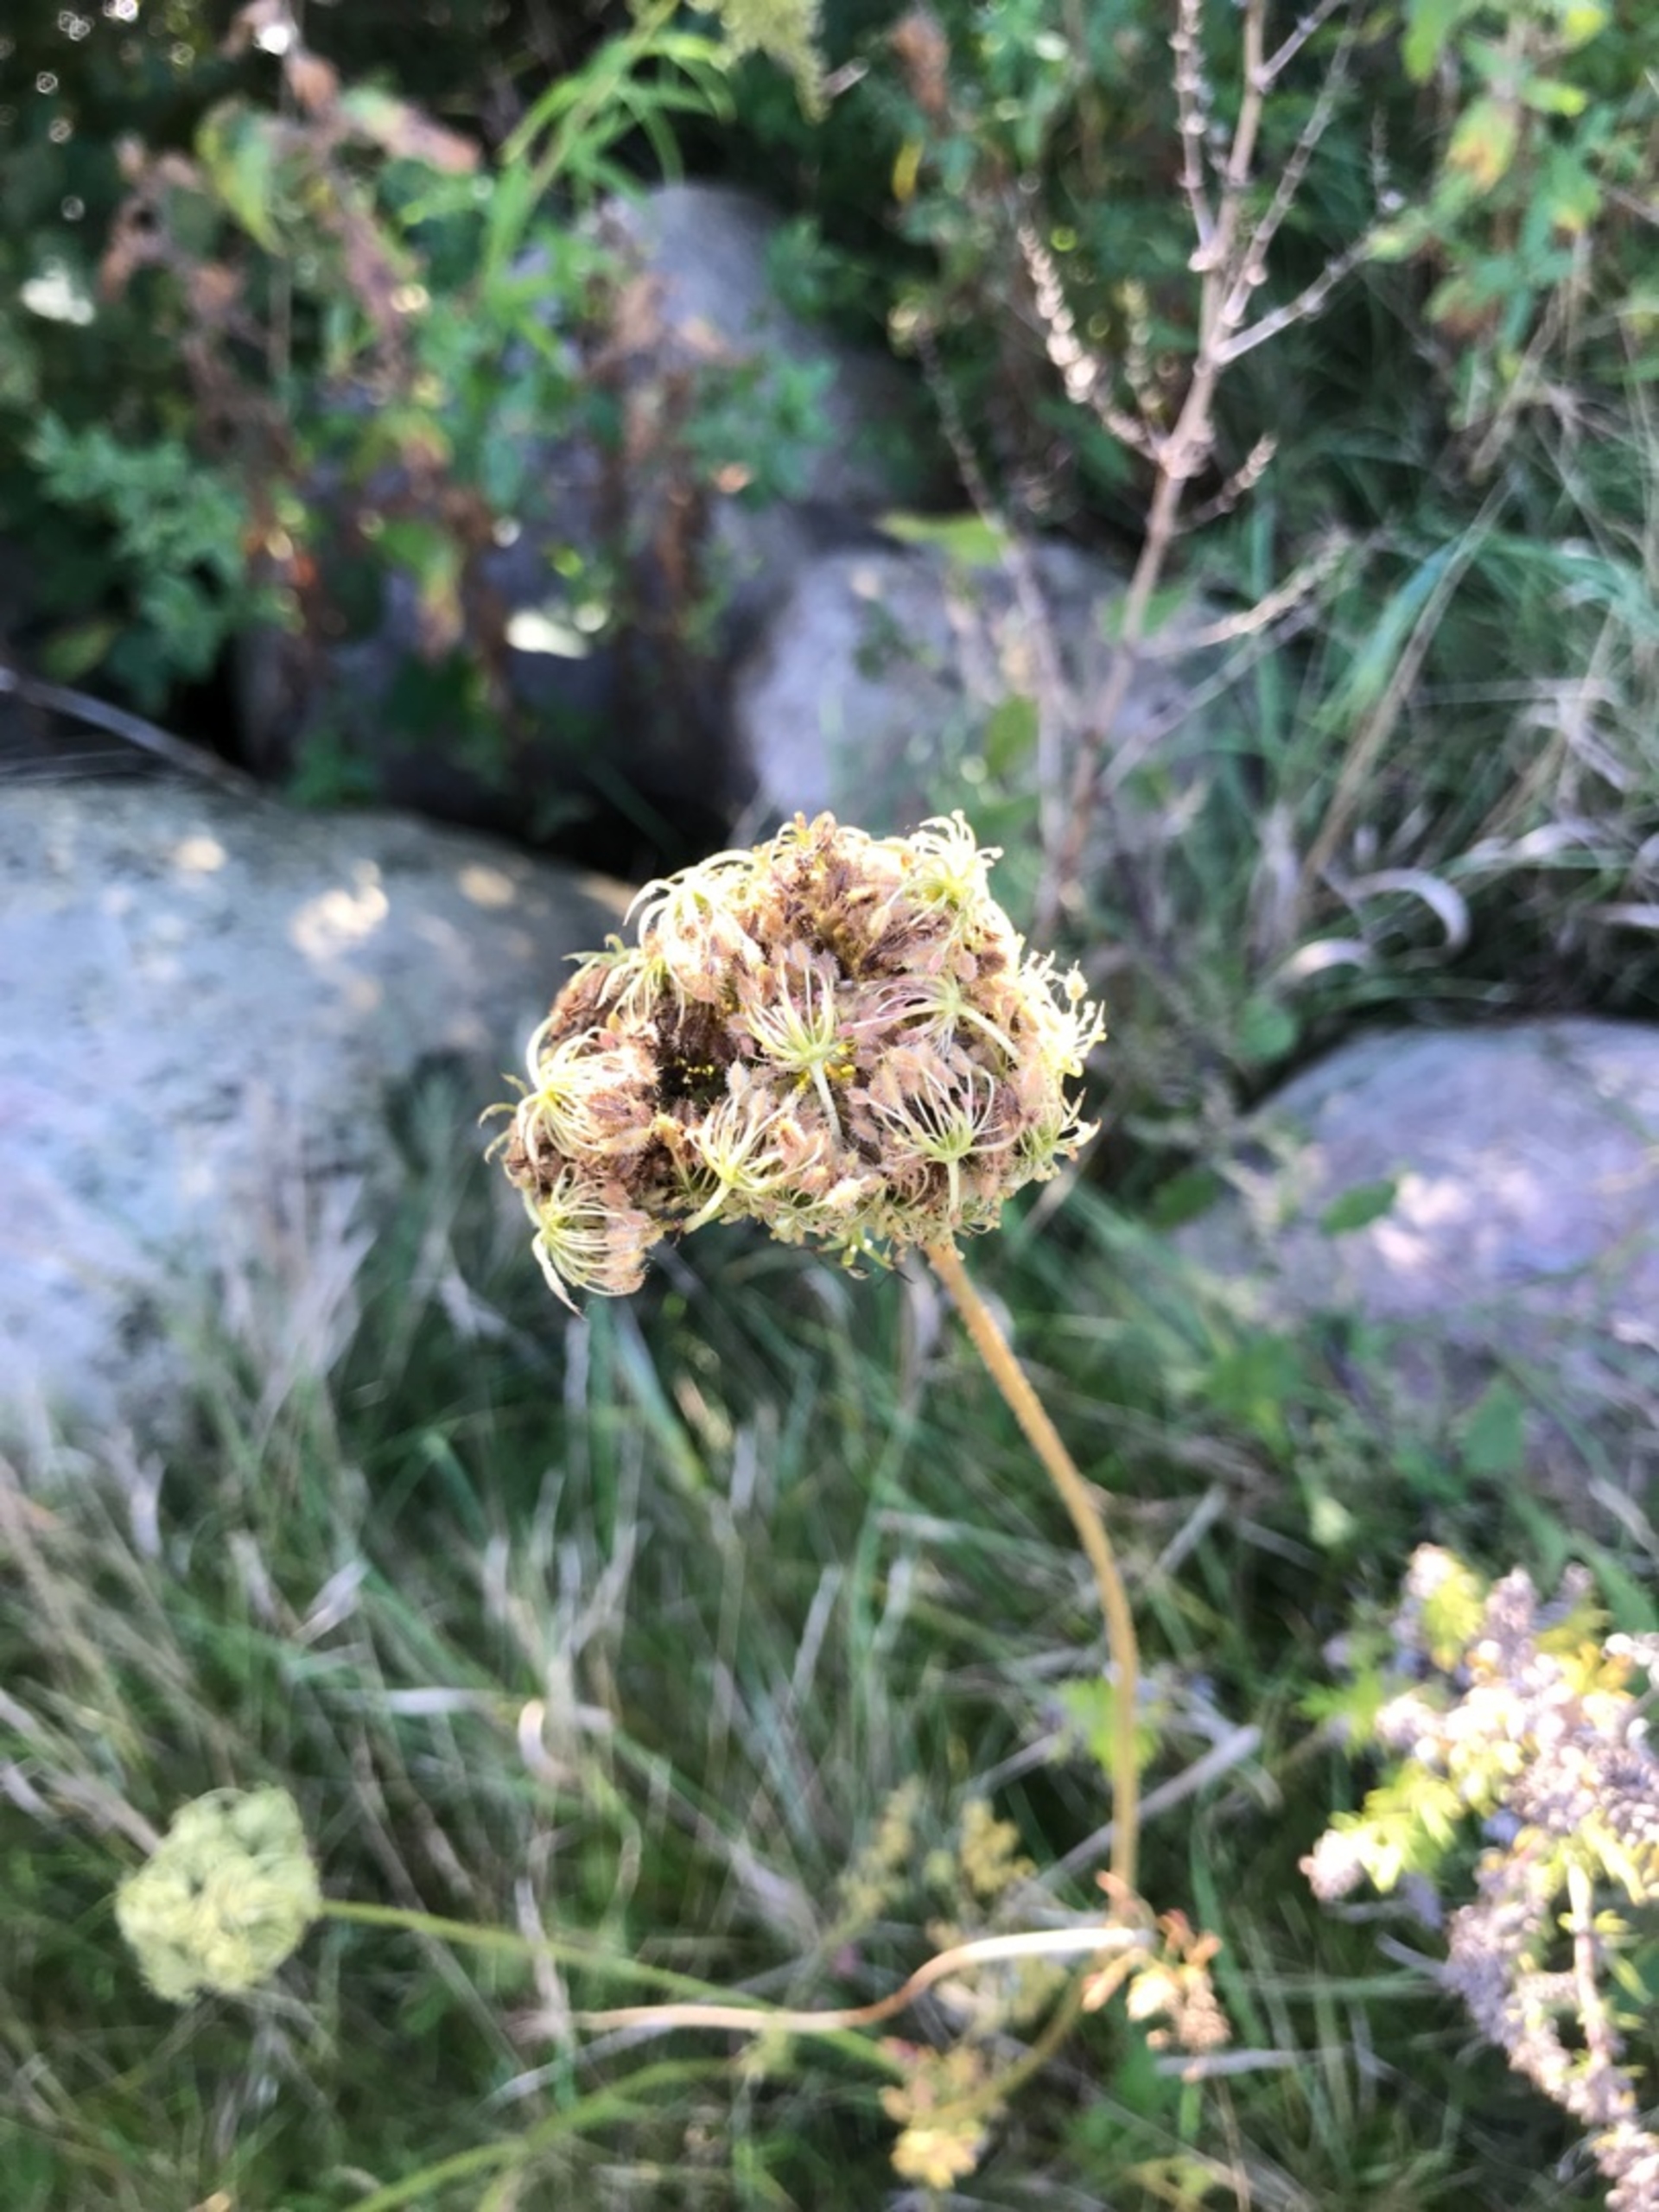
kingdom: Plantae
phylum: Tracheophyta
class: Magnoliopsida
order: Apiales
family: Apiaceae
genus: Daucus
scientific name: Daucus carota
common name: Gulerod
